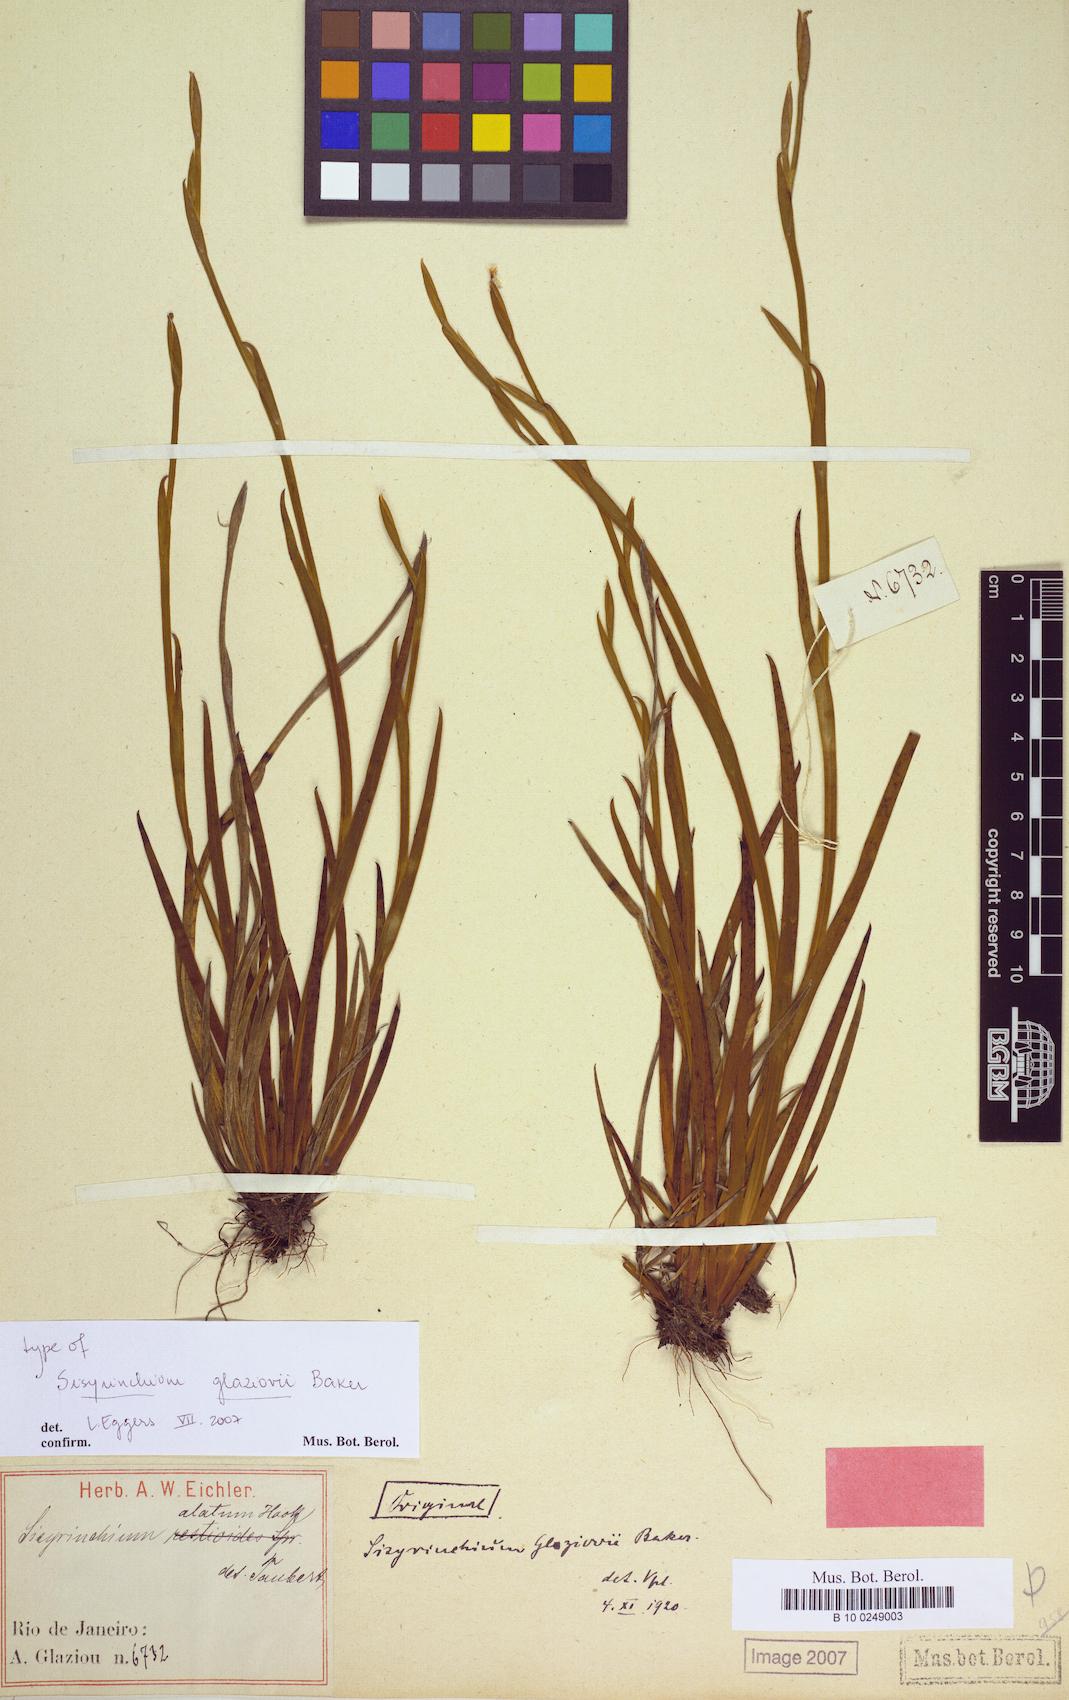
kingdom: Plantae
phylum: Tracheophyta
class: Liliopsida
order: Asparagales
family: Iridaceae
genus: Sisyrinchium
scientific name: Sisyrinchium glaziovii
